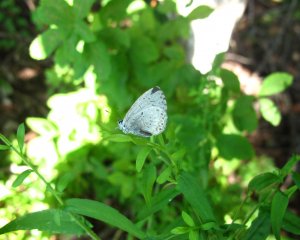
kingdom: Animalia
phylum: Arthropoda
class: Insecta
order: Lepidoptera
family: Lycaenidae
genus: Cyaniris
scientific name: Cyaniris neglecta
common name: Summer Azure
